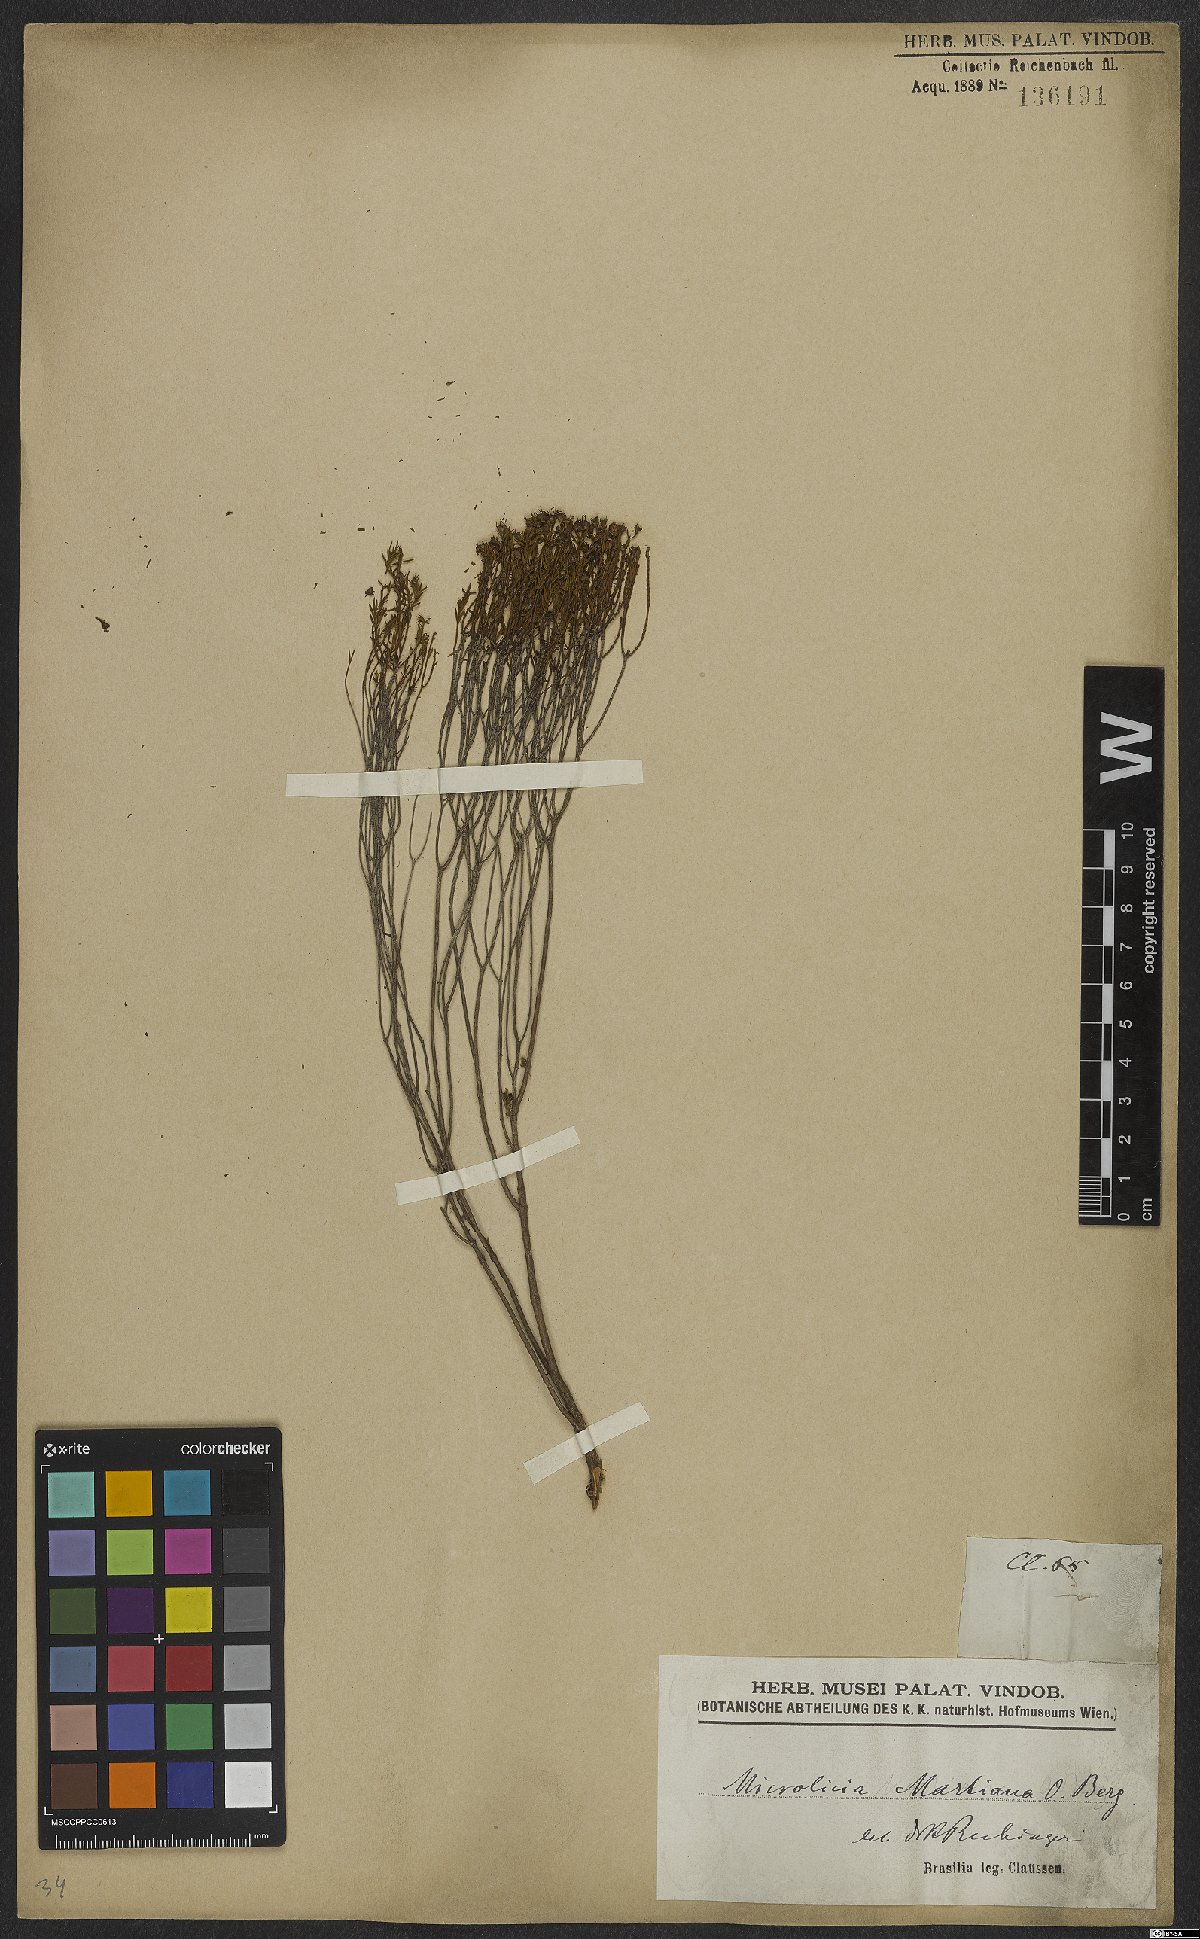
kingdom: Plantae
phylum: Tracheophyta
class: Magnoliopsida
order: Myrtales
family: Melastomataceae
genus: Microlicia
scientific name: Microlicia martiana
